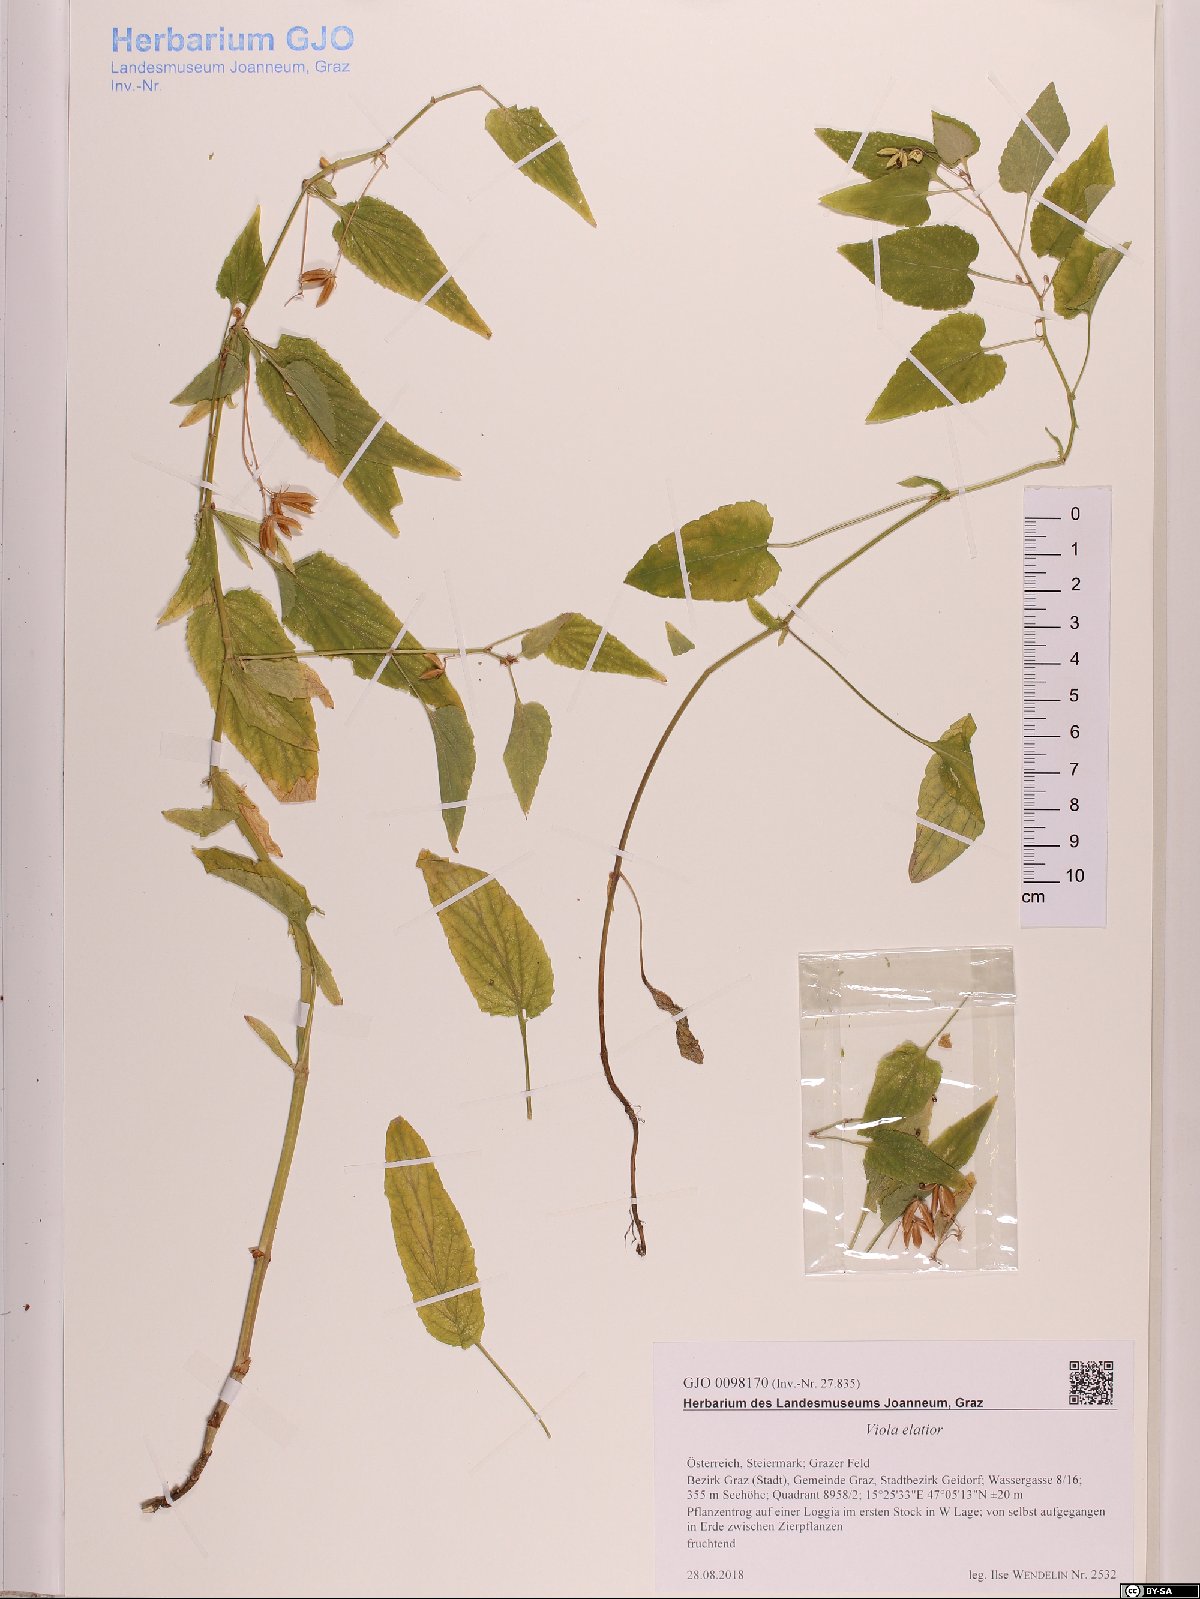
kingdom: Plantae
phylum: Tracheophyta
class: Magnoliopsida
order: Malpighiales
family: Violaceae
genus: Viola
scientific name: Viola elatior
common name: Tall violet
